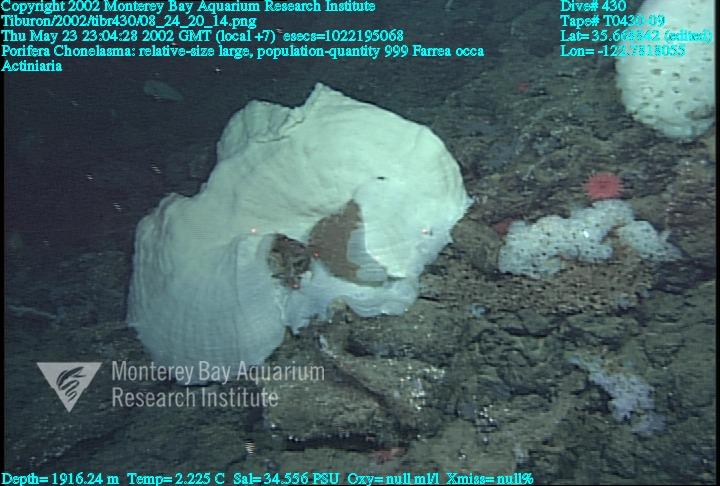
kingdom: Animalia
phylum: Porifera
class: Hexactinellida
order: Sceptrulophora
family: Euretidae
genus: Chonelasma
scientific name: Chonelasma
